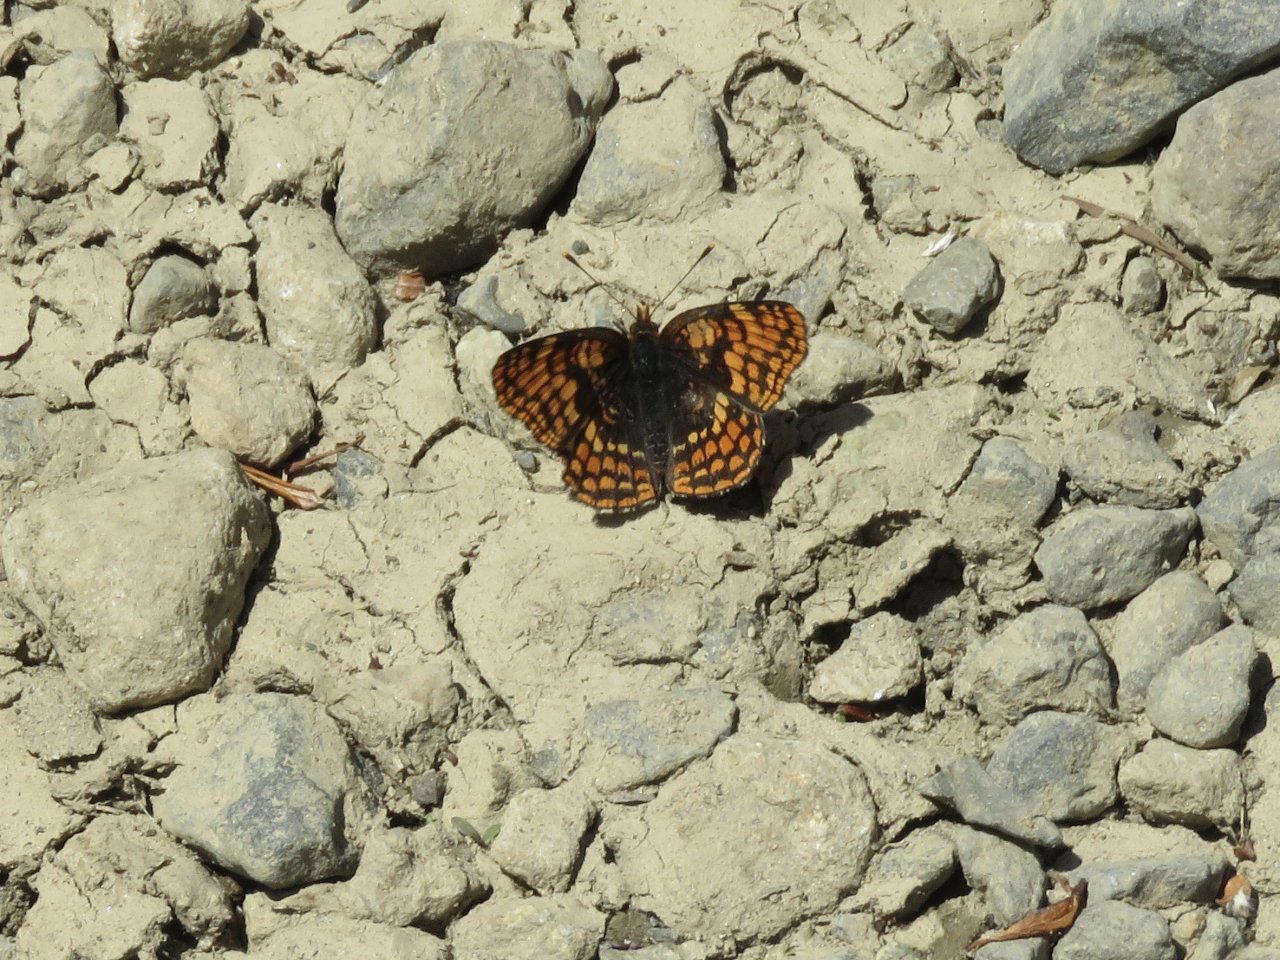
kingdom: Animalia
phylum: Arthropoda
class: Insecta
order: Lepidoptera
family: Nymphalidae
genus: Chlosyne
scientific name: Chlosyne hoffmanni
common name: Hoffmann's Checkerspot
